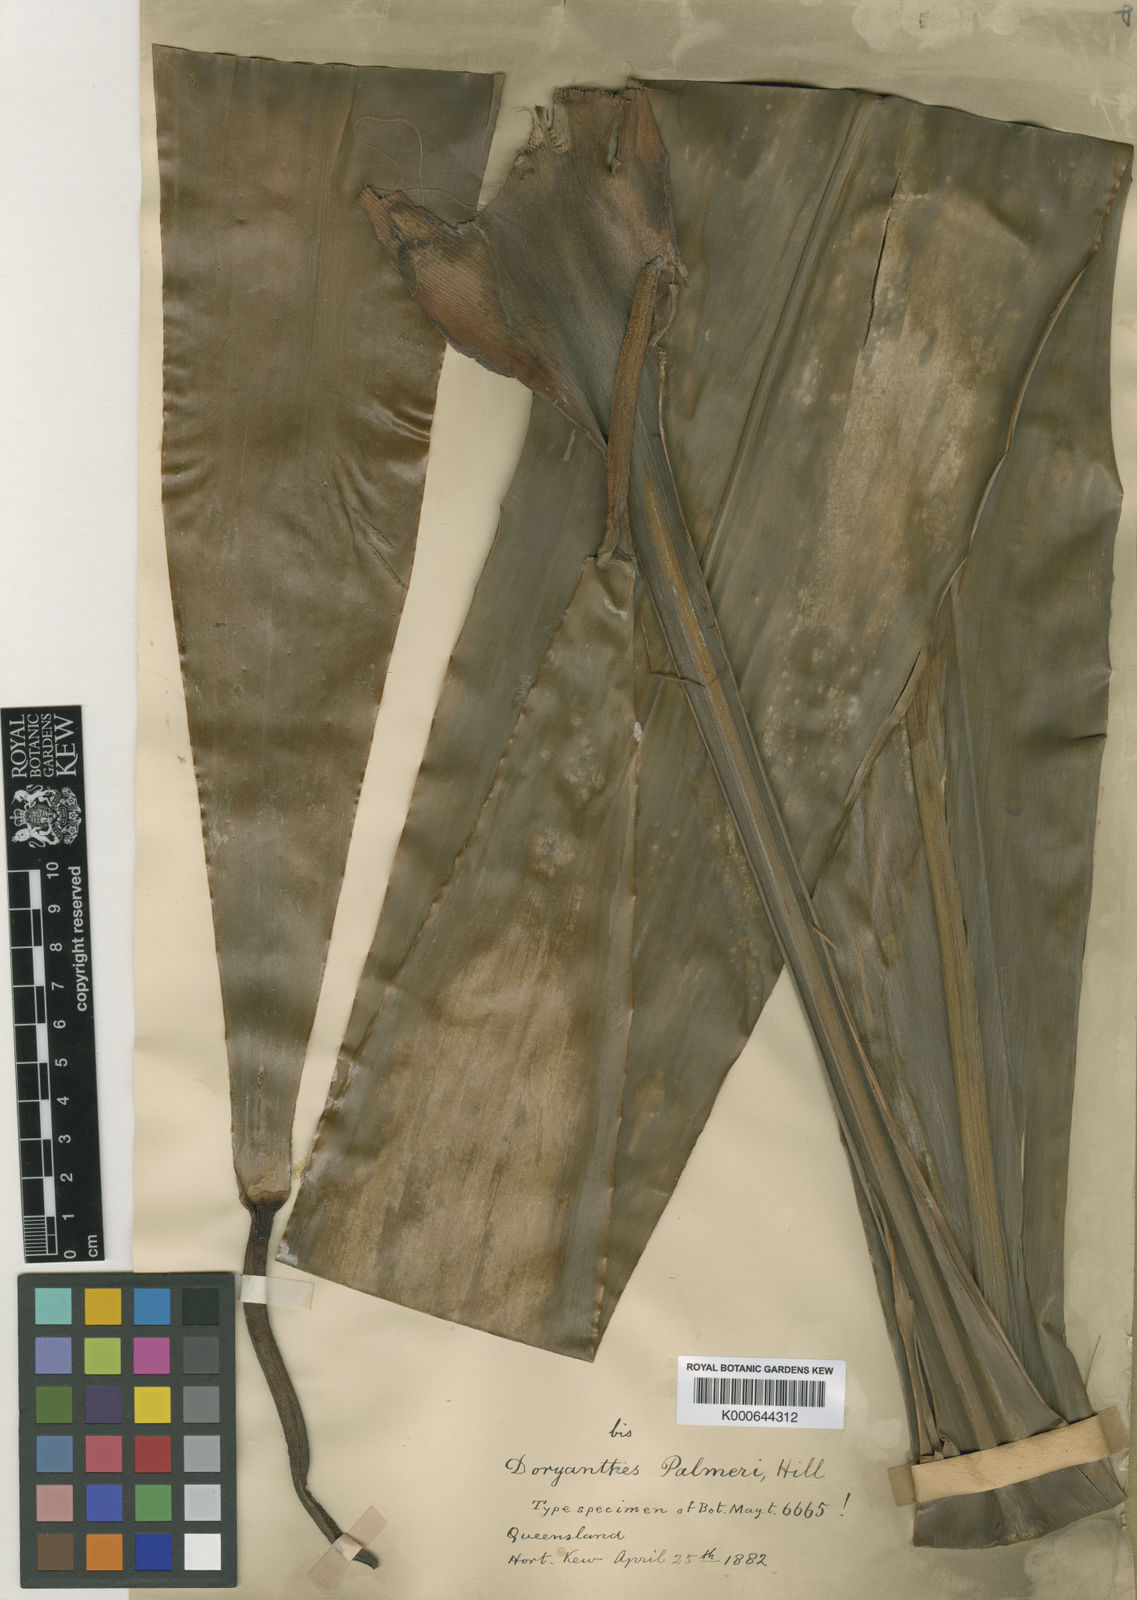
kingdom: Plantae
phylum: Tracheophyta
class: Liliopsida
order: Asparagales
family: Doryanthaceae
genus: Doryanthes
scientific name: Doryanthes
